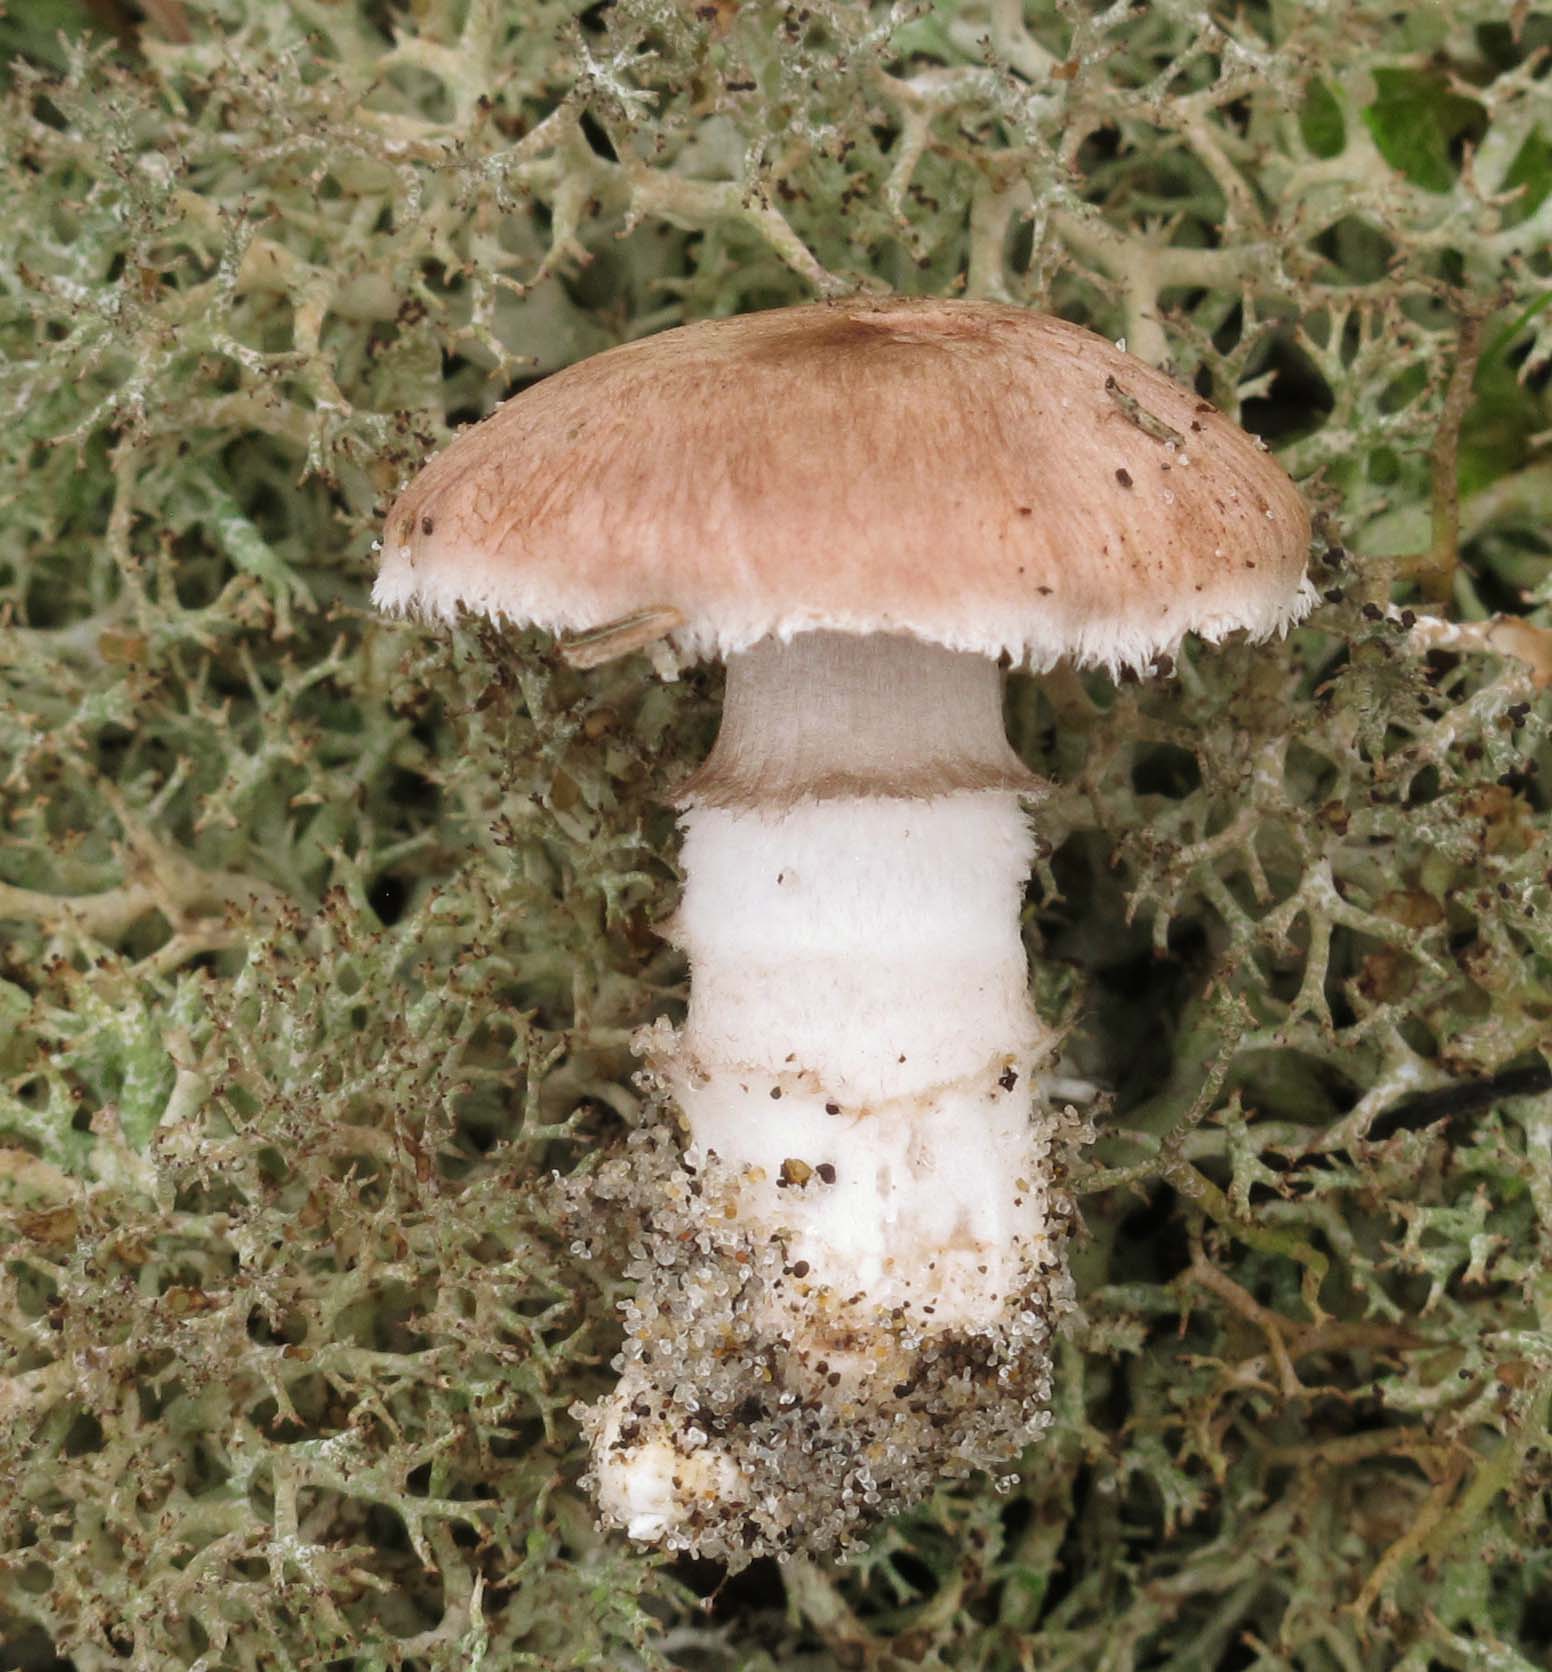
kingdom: Fungi
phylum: Basidiomycota
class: Agaricomycetes
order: Agaricales
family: Agaricaceae
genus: Agaricus
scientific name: Agaricus cupreobrunneus
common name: kobberbrun champignon
